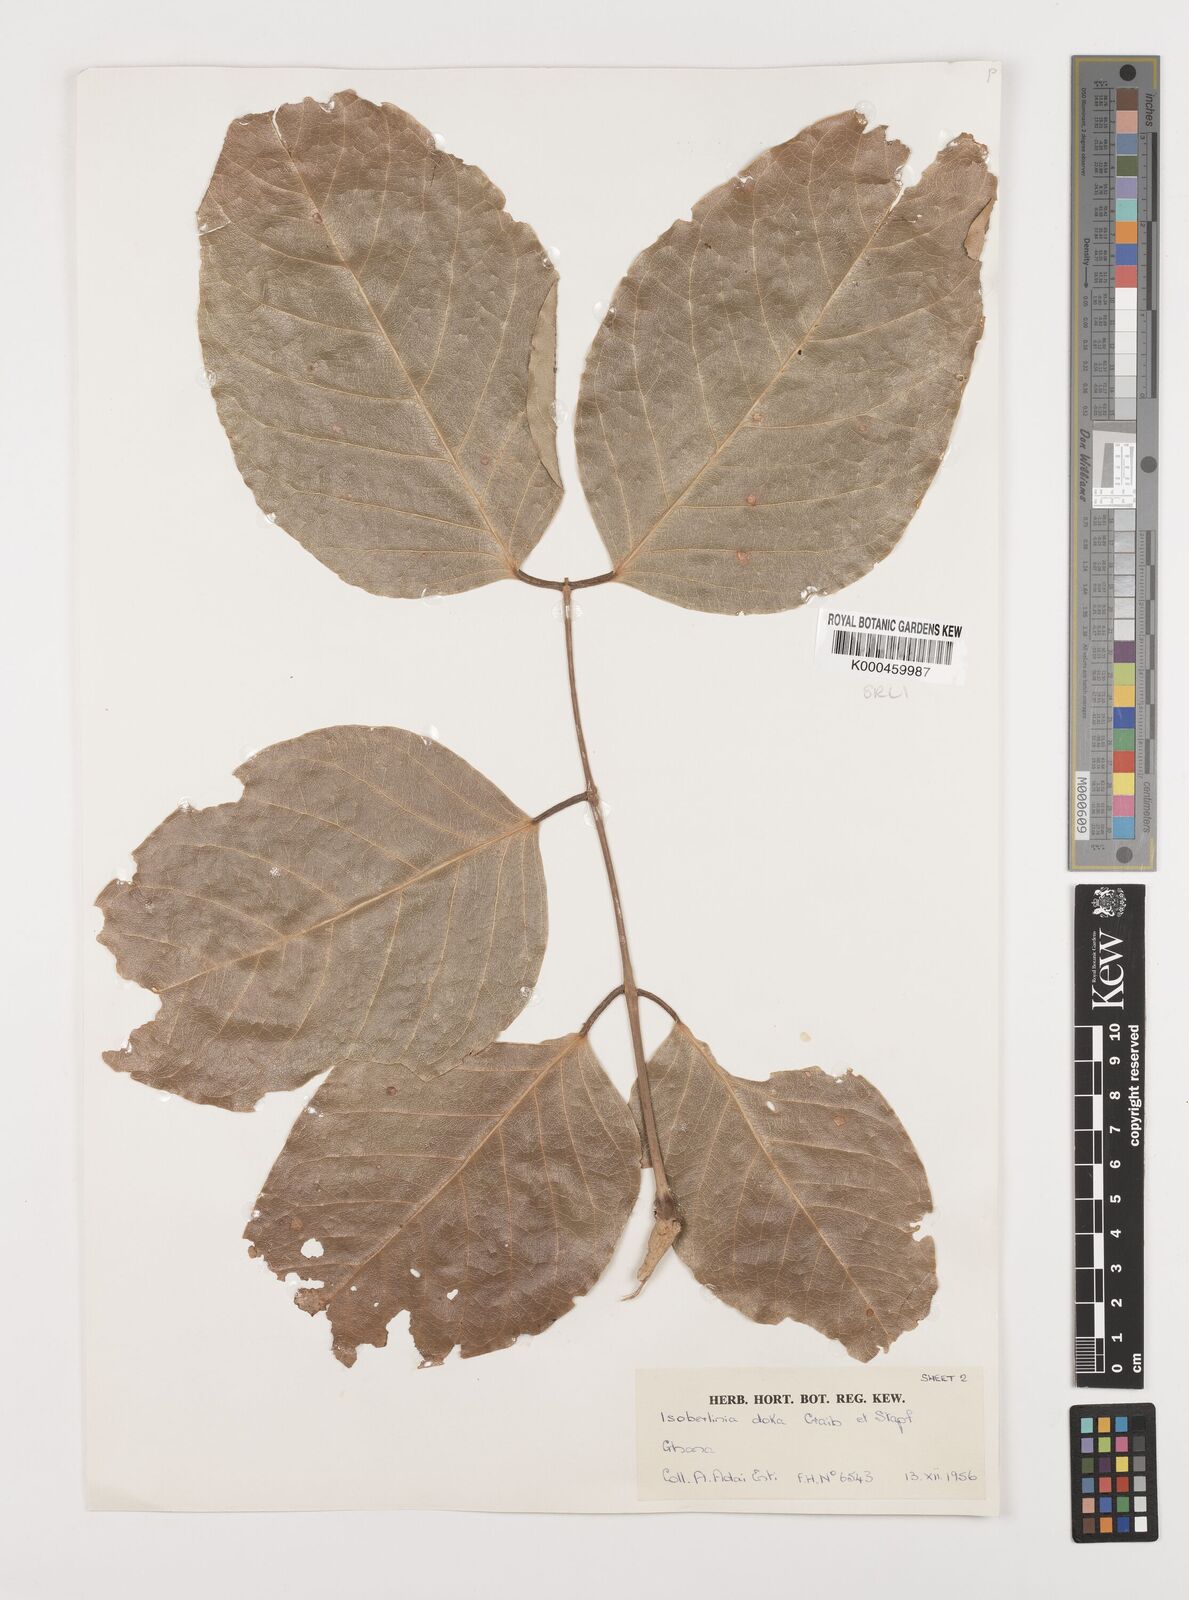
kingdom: Plantae
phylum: Tracheophyta
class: Magnoliopsida
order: Fabales
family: Fabaceae
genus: Isoberlinia
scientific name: Isoberlinia doka
